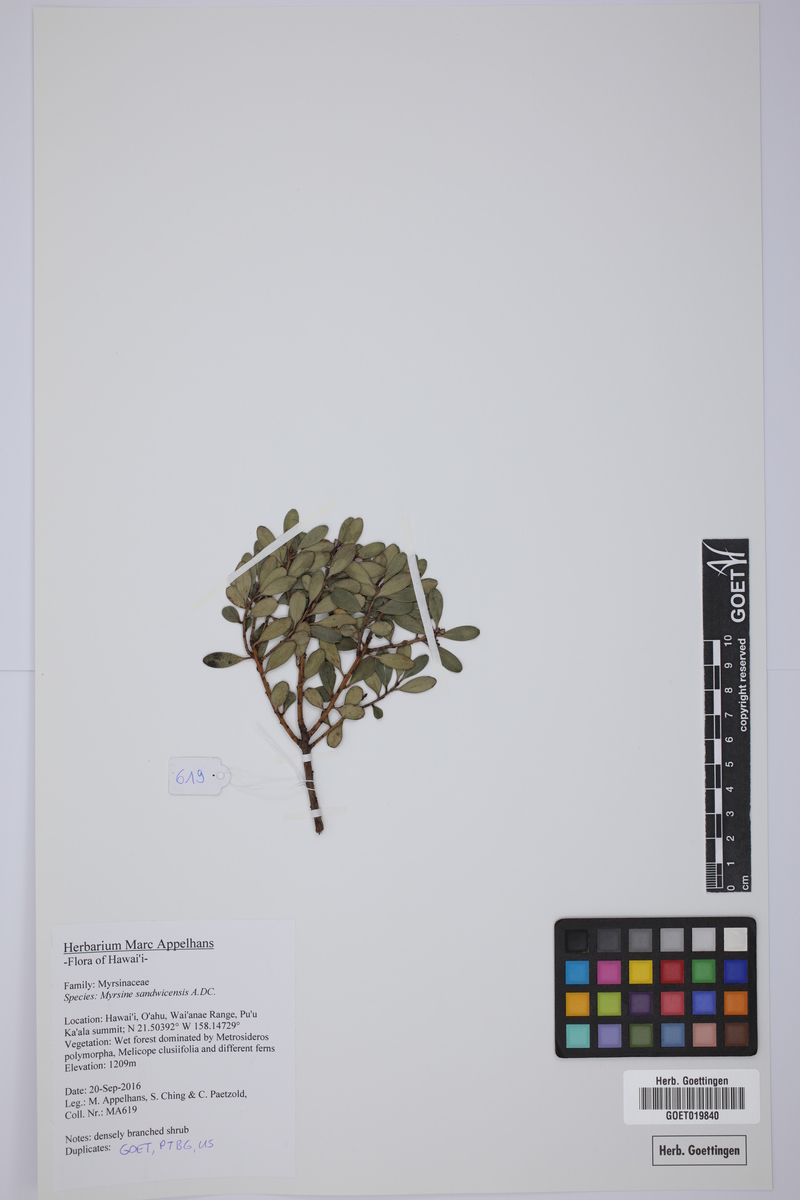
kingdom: Plantae
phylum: Tracheophyta
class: Magnoliopsida
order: Ericales
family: Primulaceae
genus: Myrsine
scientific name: Myrsine sandwicensis
